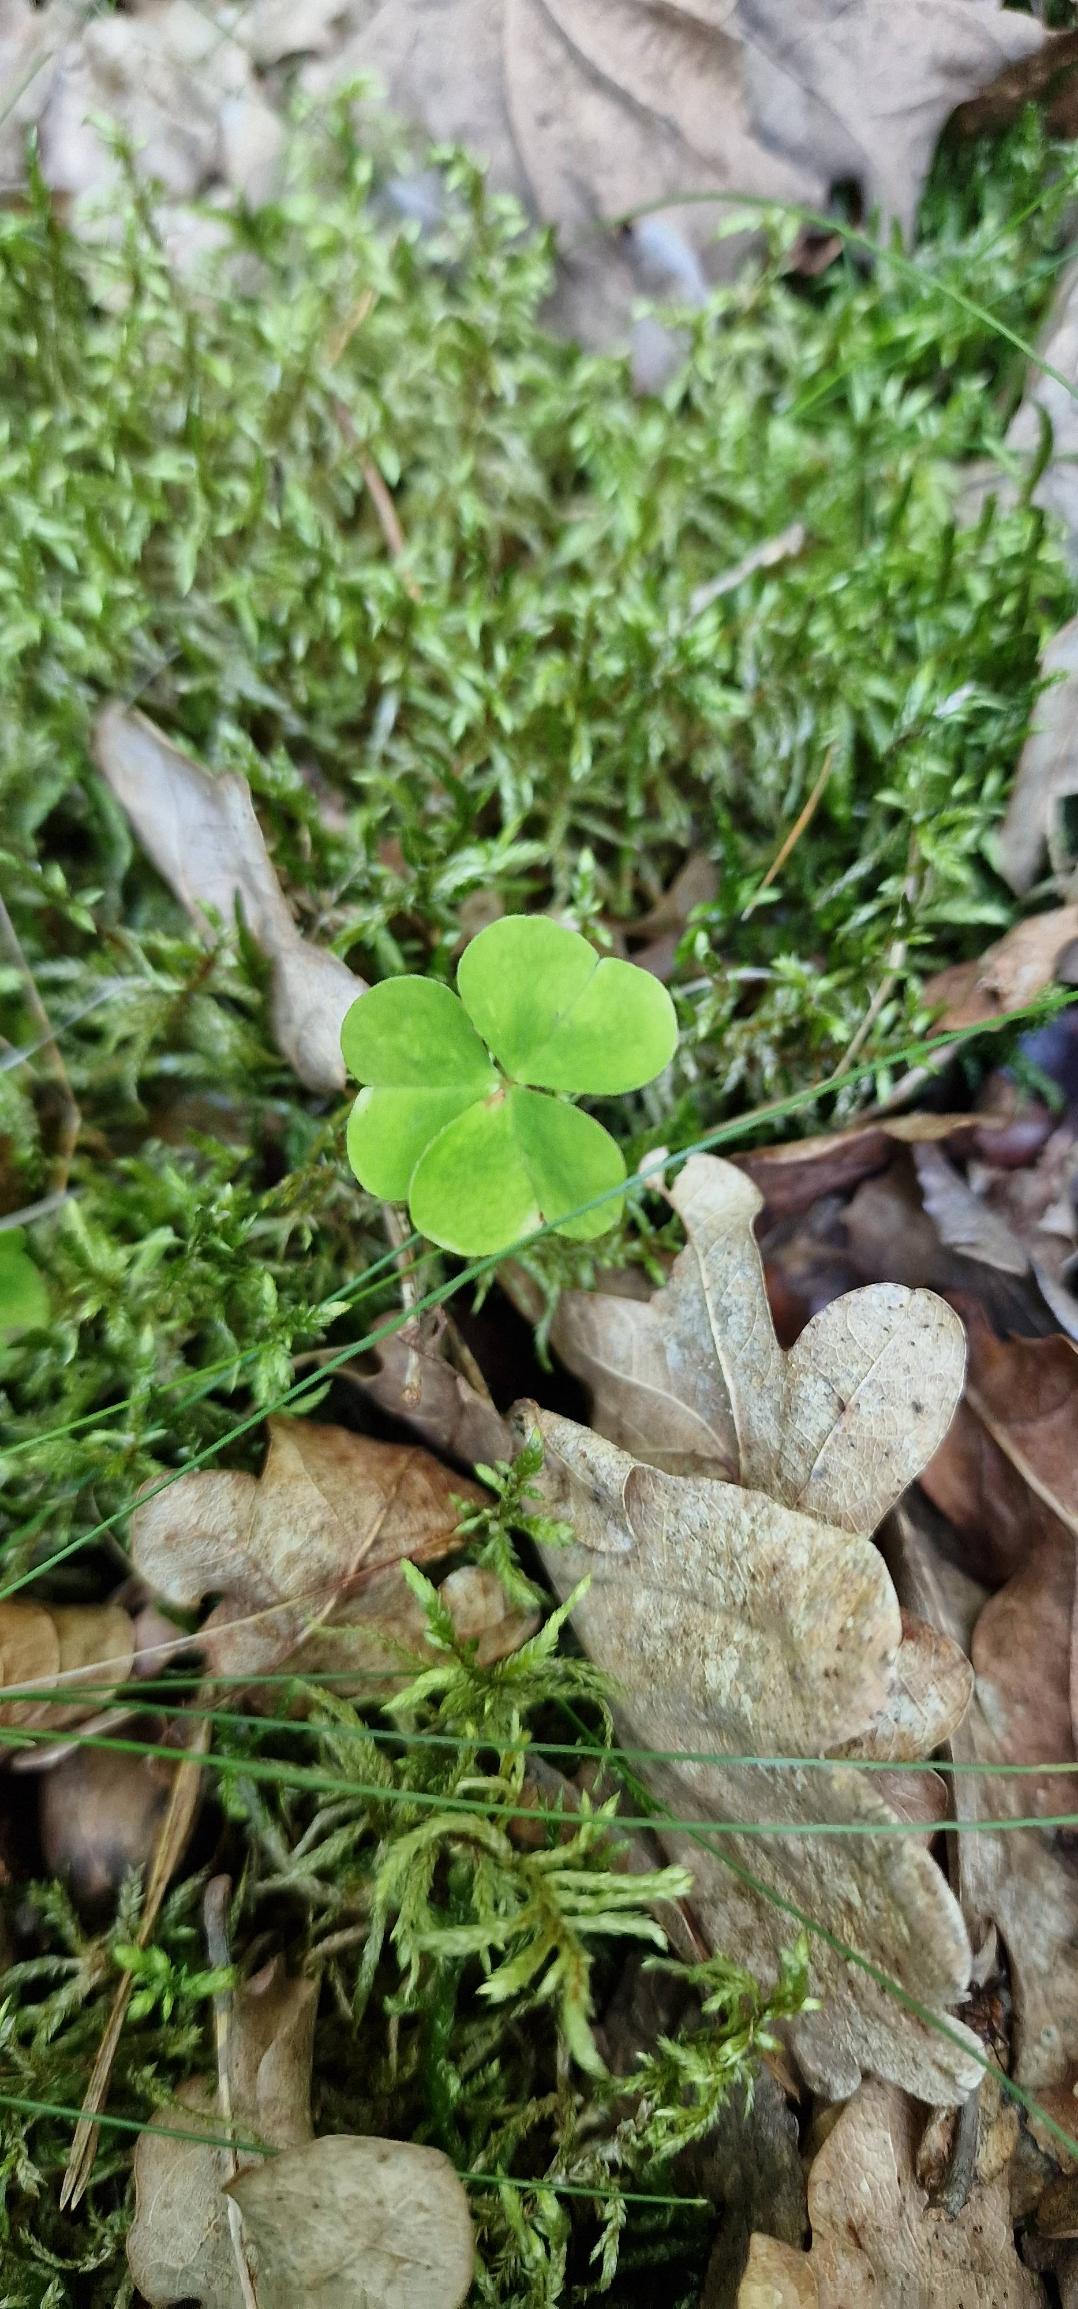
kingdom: Plantae
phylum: Tracheophyta
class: Magnoliopsida
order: Oxalidales
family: Oxalidaceae
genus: Oxalis
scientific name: Oxalis acetosella
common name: Skovsyre
